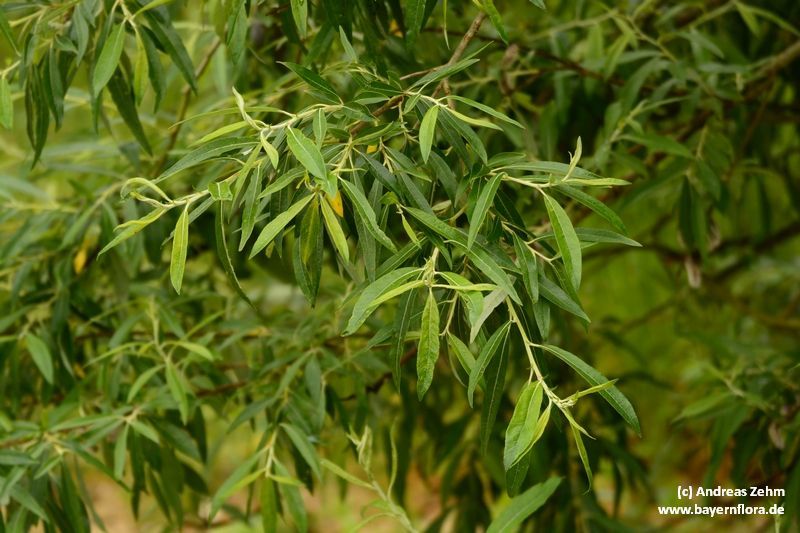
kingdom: Plantae
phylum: Tracheophyta
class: Magnoliopsida
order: Malpighiales
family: Salicaceae
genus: Salix
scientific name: Salix mollissima
